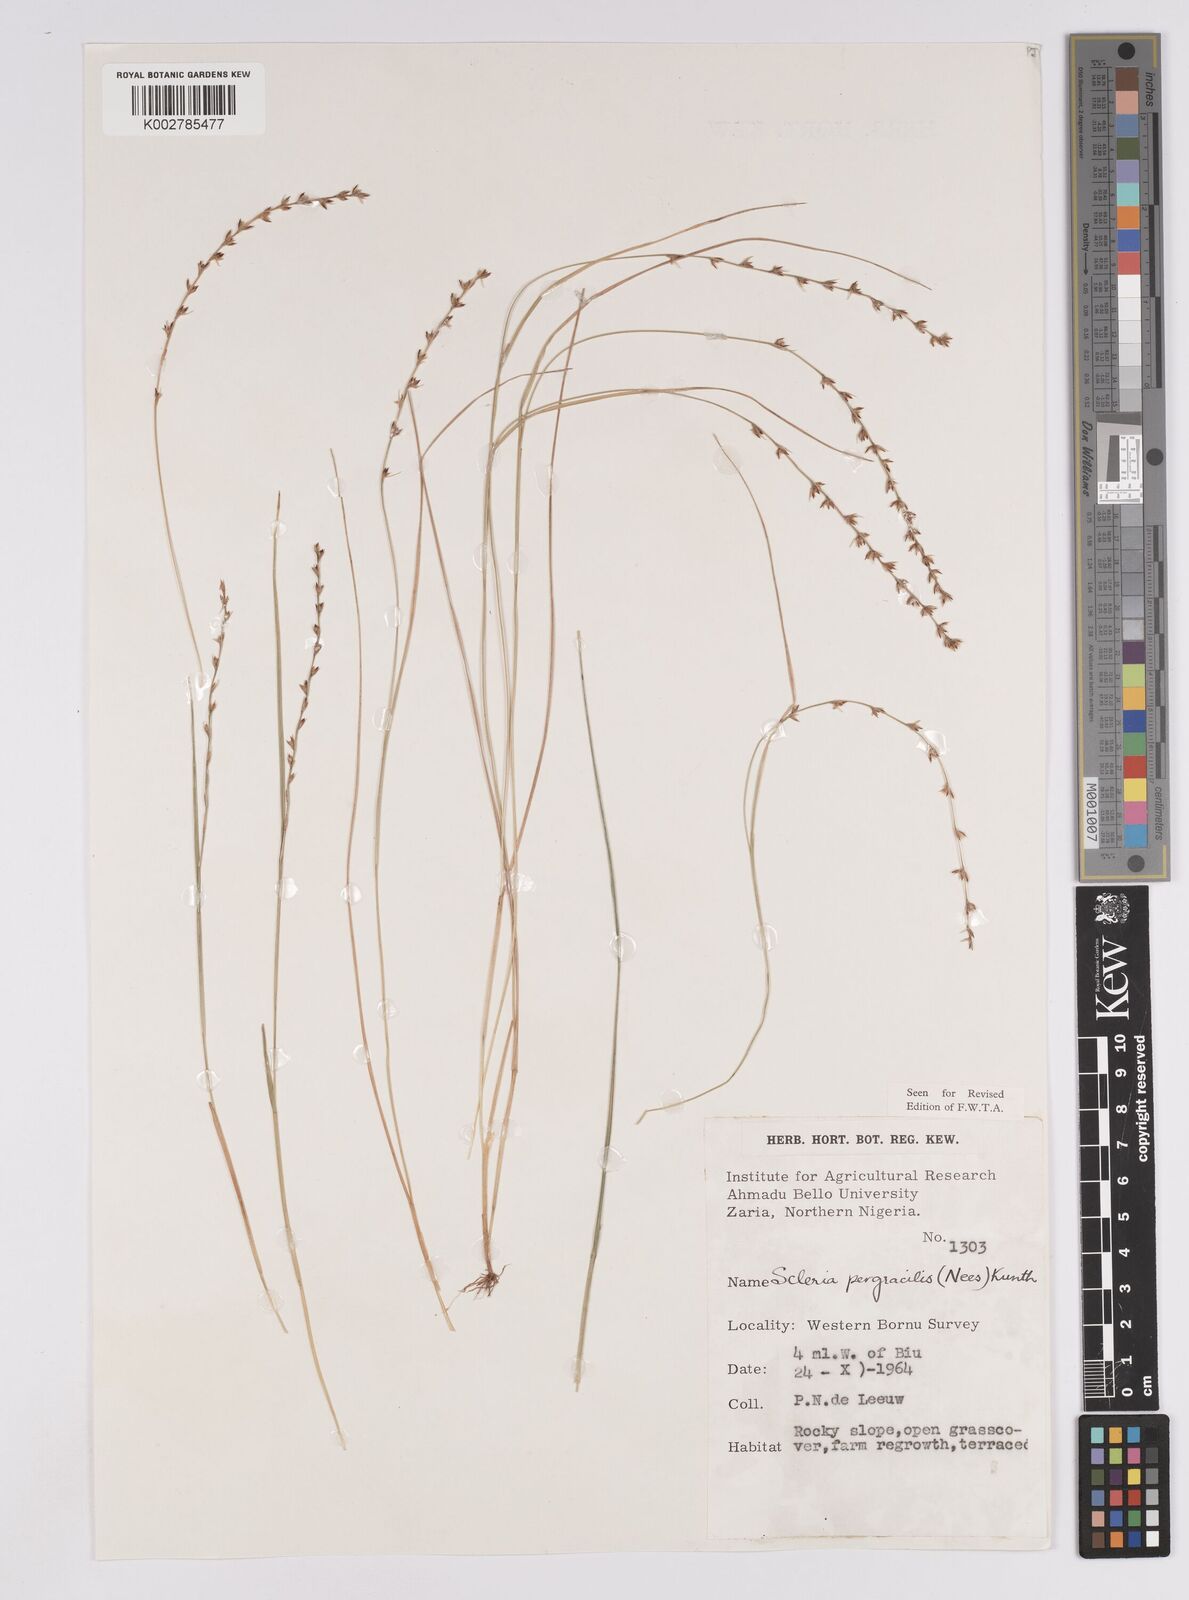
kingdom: Plantae
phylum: Tracheophyta
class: Liliopsida
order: Poales
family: Cyperaceae
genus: Scleria
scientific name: Scleria pergracilis
